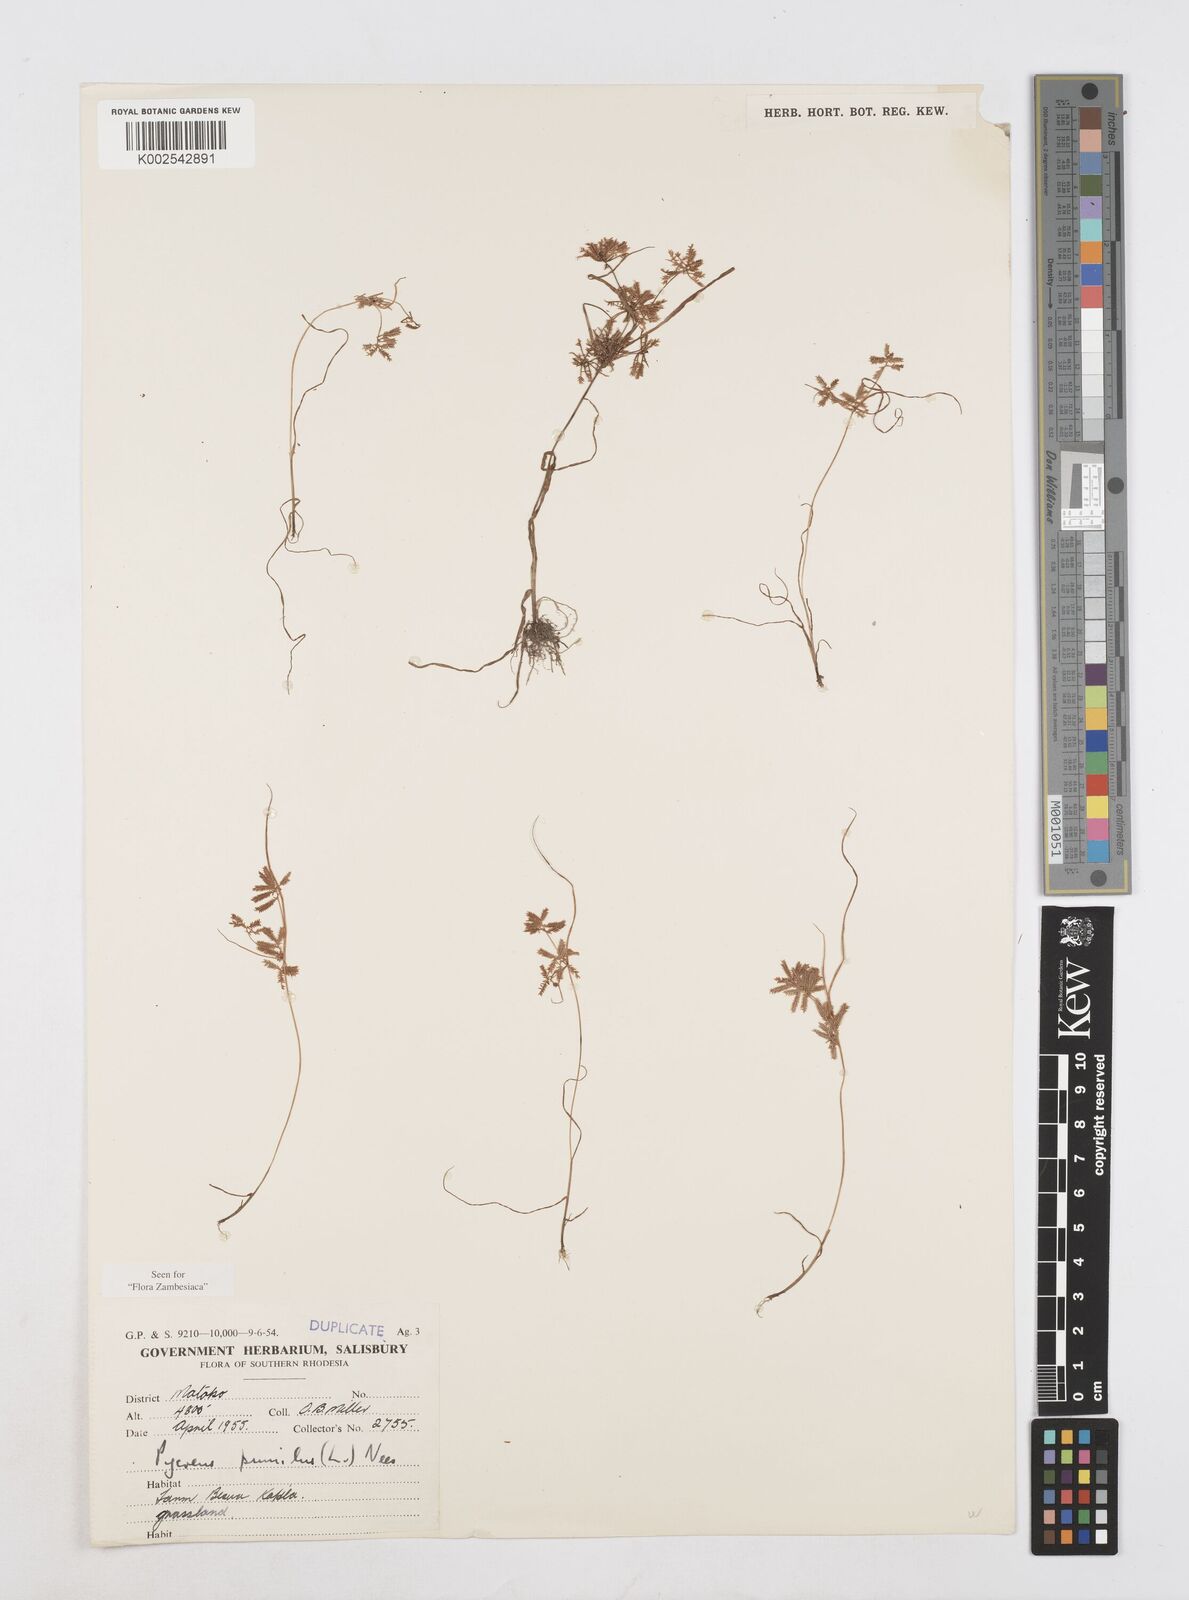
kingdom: Plantae
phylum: Tracheophyta
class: Liliopsida
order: Poales
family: Cyperaceae
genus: Cyperus
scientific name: Cyperus pumilus
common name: Low flatsedge
